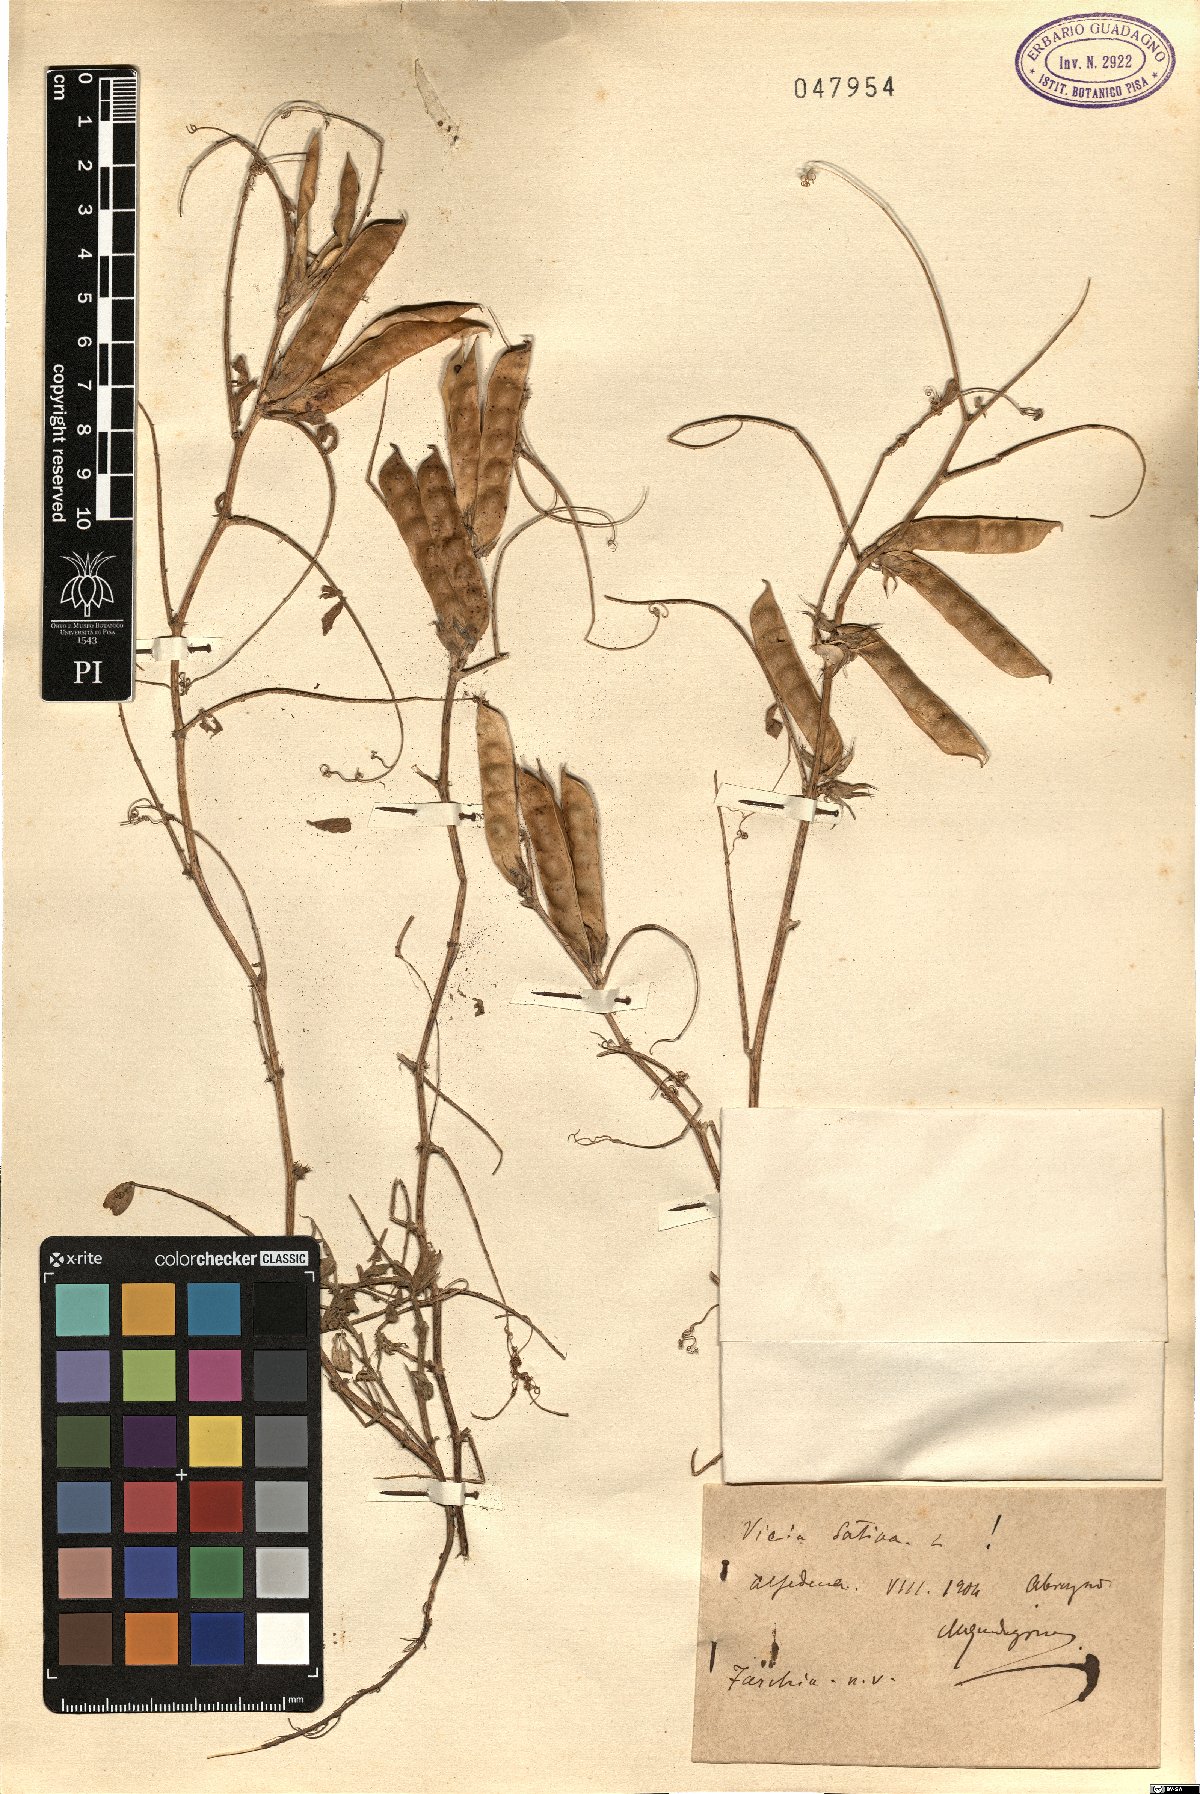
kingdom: Plantae
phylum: Tracheophyta
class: Magnoliopsida
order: Fabales
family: Fabaceae
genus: Vicia
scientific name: Vicia sativa
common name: Garden vetch
